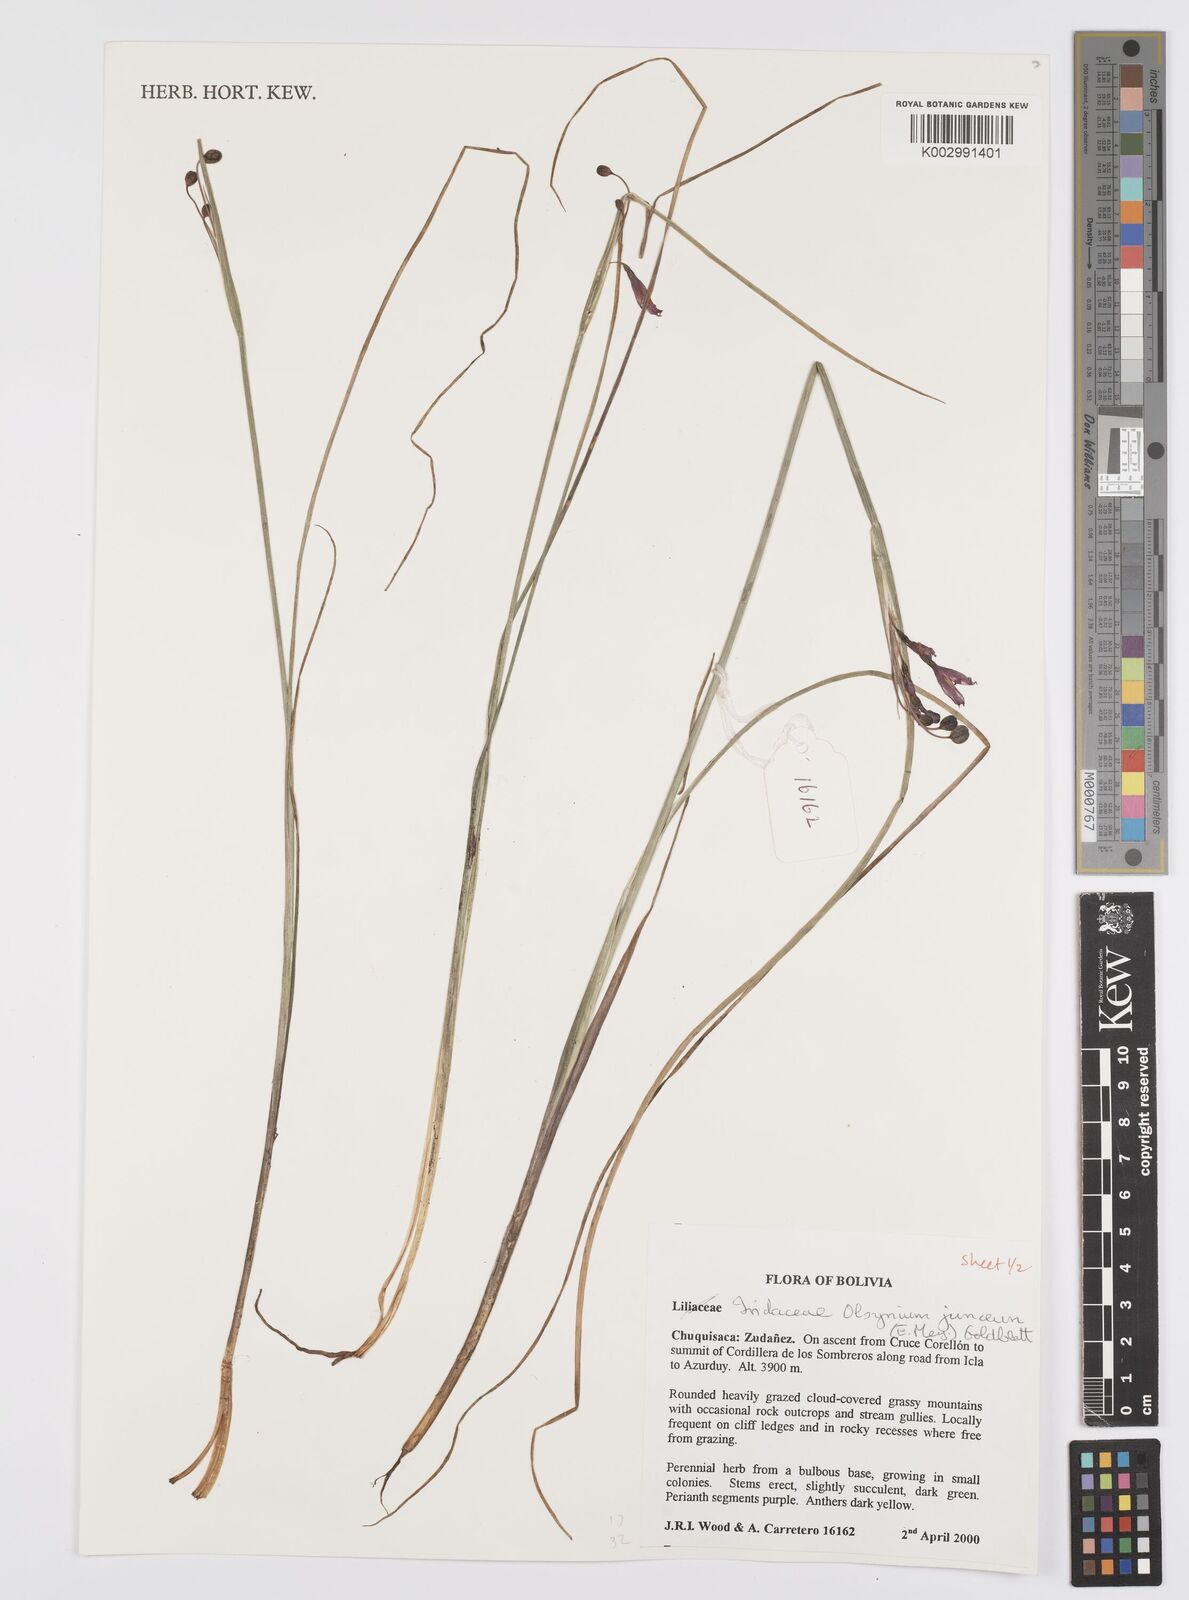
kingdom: Plantae
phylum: Tracheophyta
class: Liliopsida
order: Asparagales
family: Iridaceae
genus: Olsynium
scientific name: Olsynium junceum
